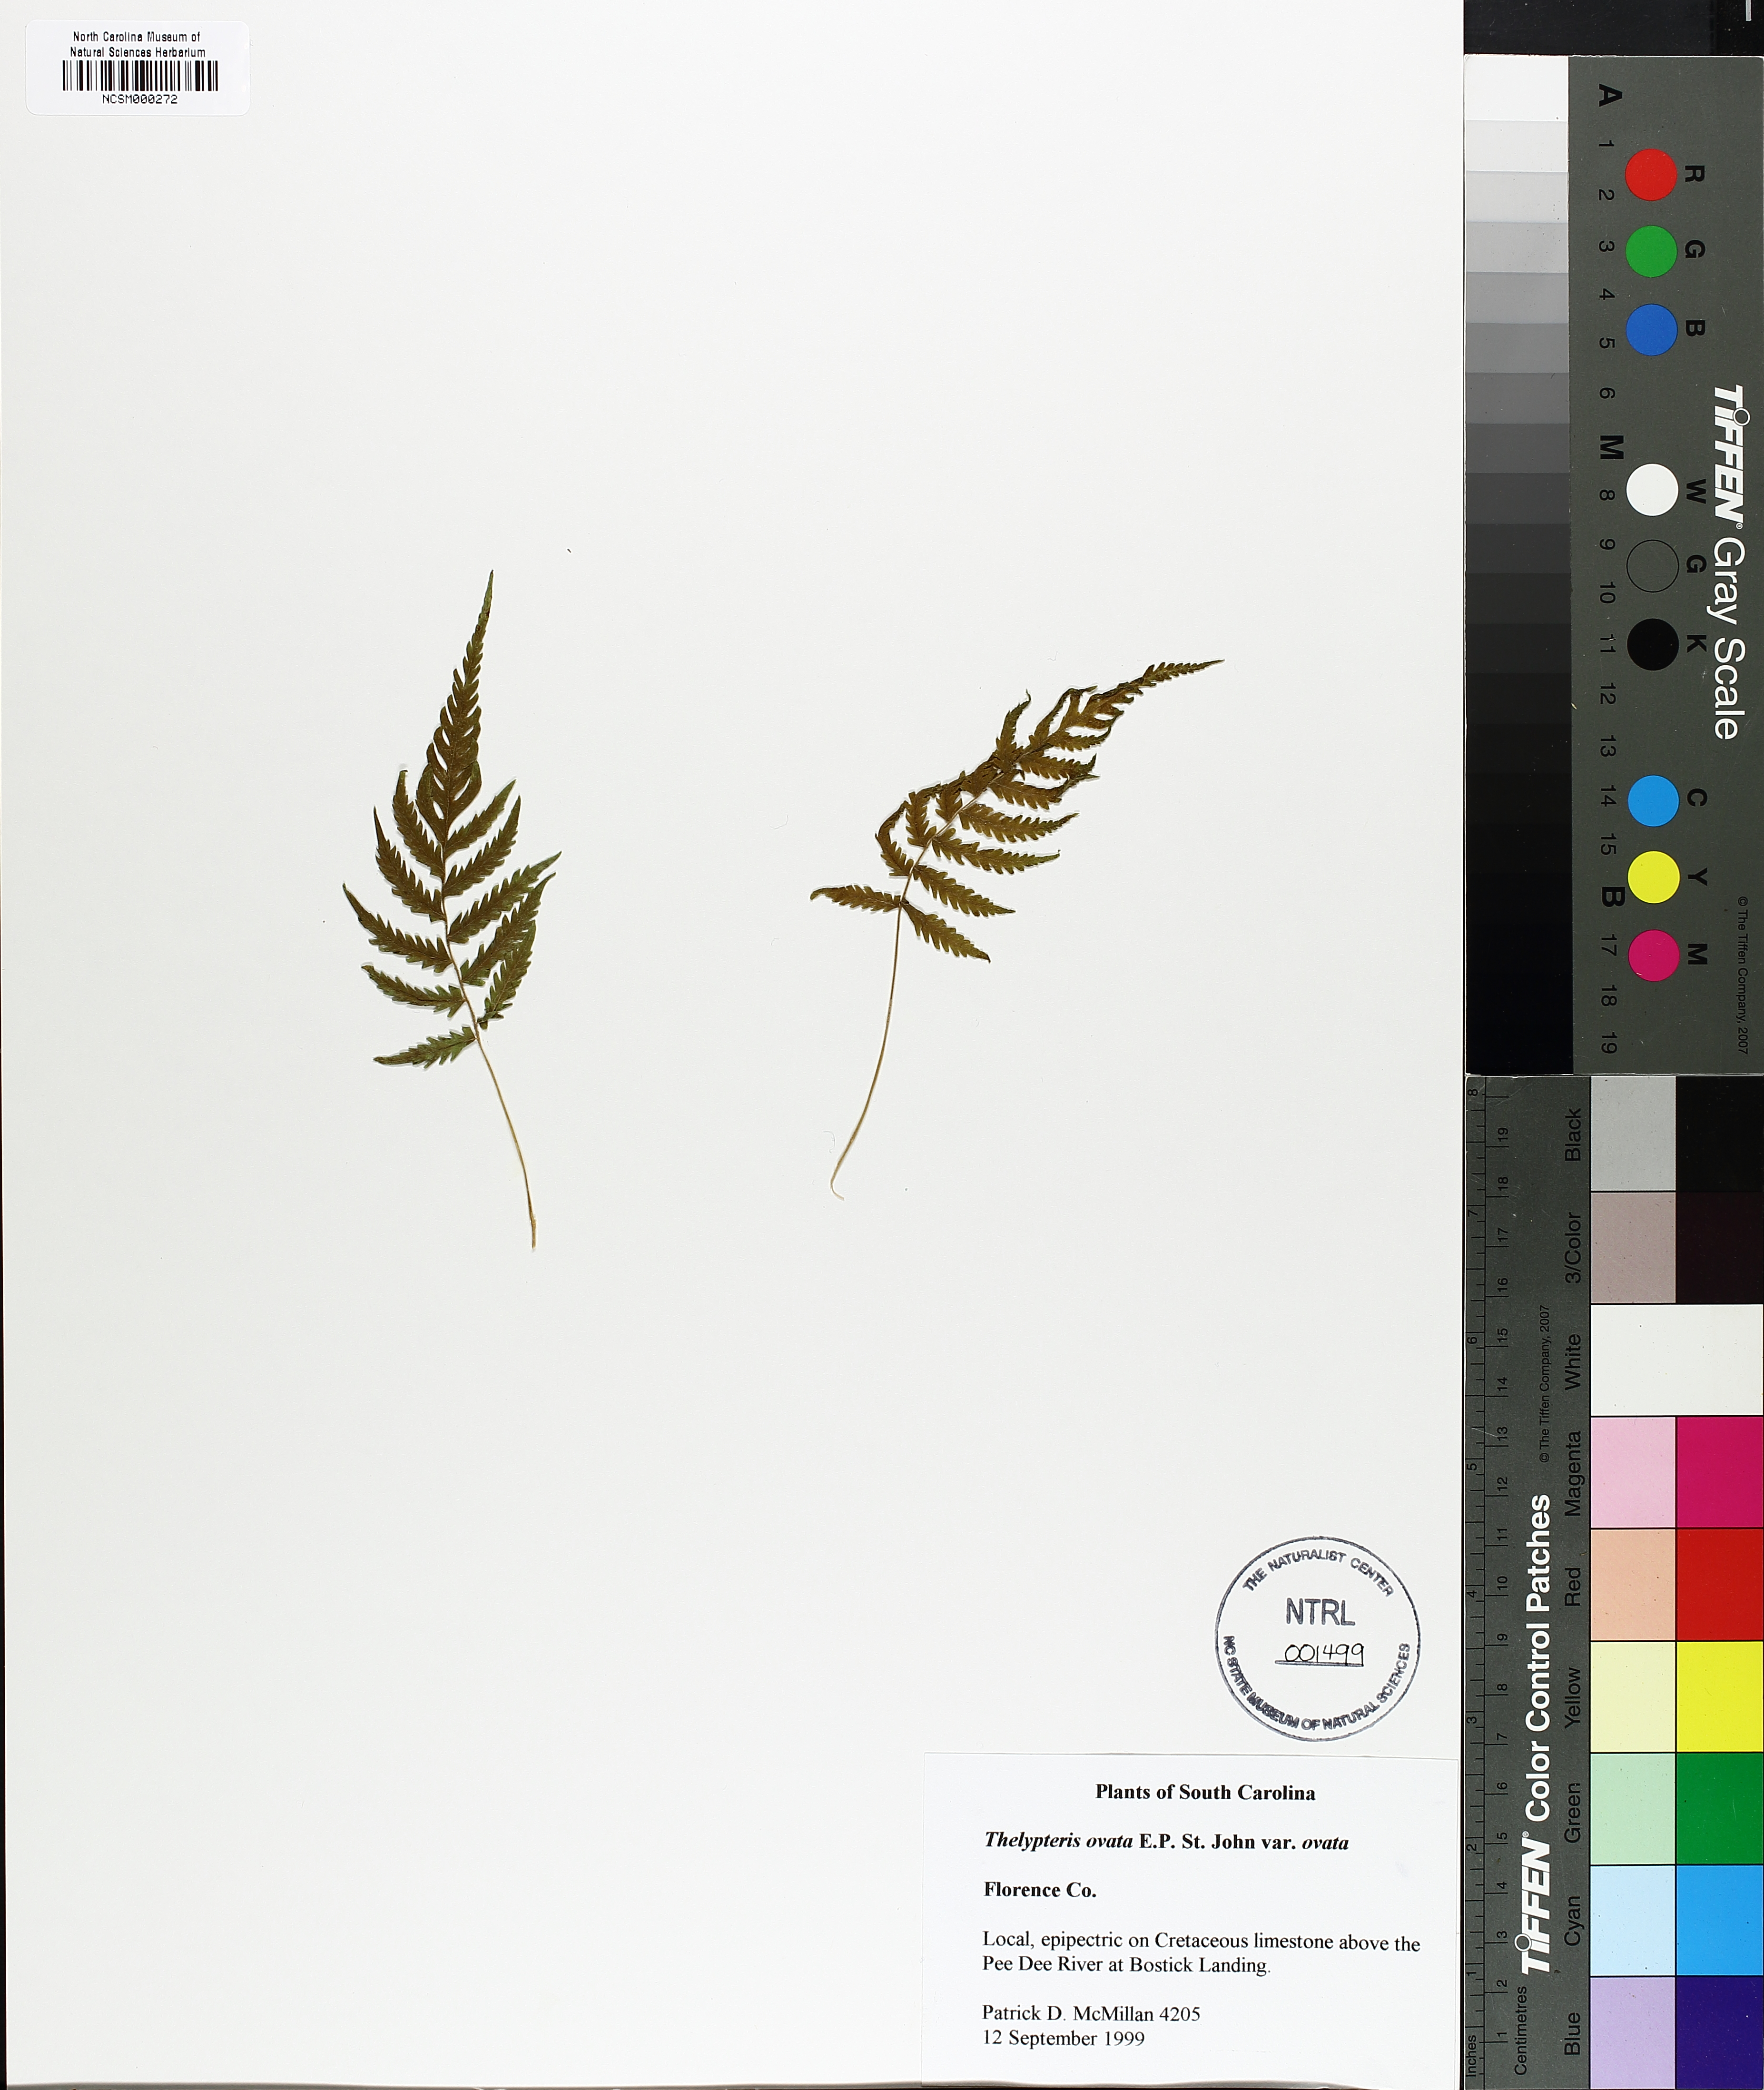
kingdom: Plantae
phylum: Tracheophyta
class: Polypodiopsida
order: Polypodiales
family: Thelypteridaceae
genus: Pelazoneuron
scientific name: Pelazoneuron ovatum
